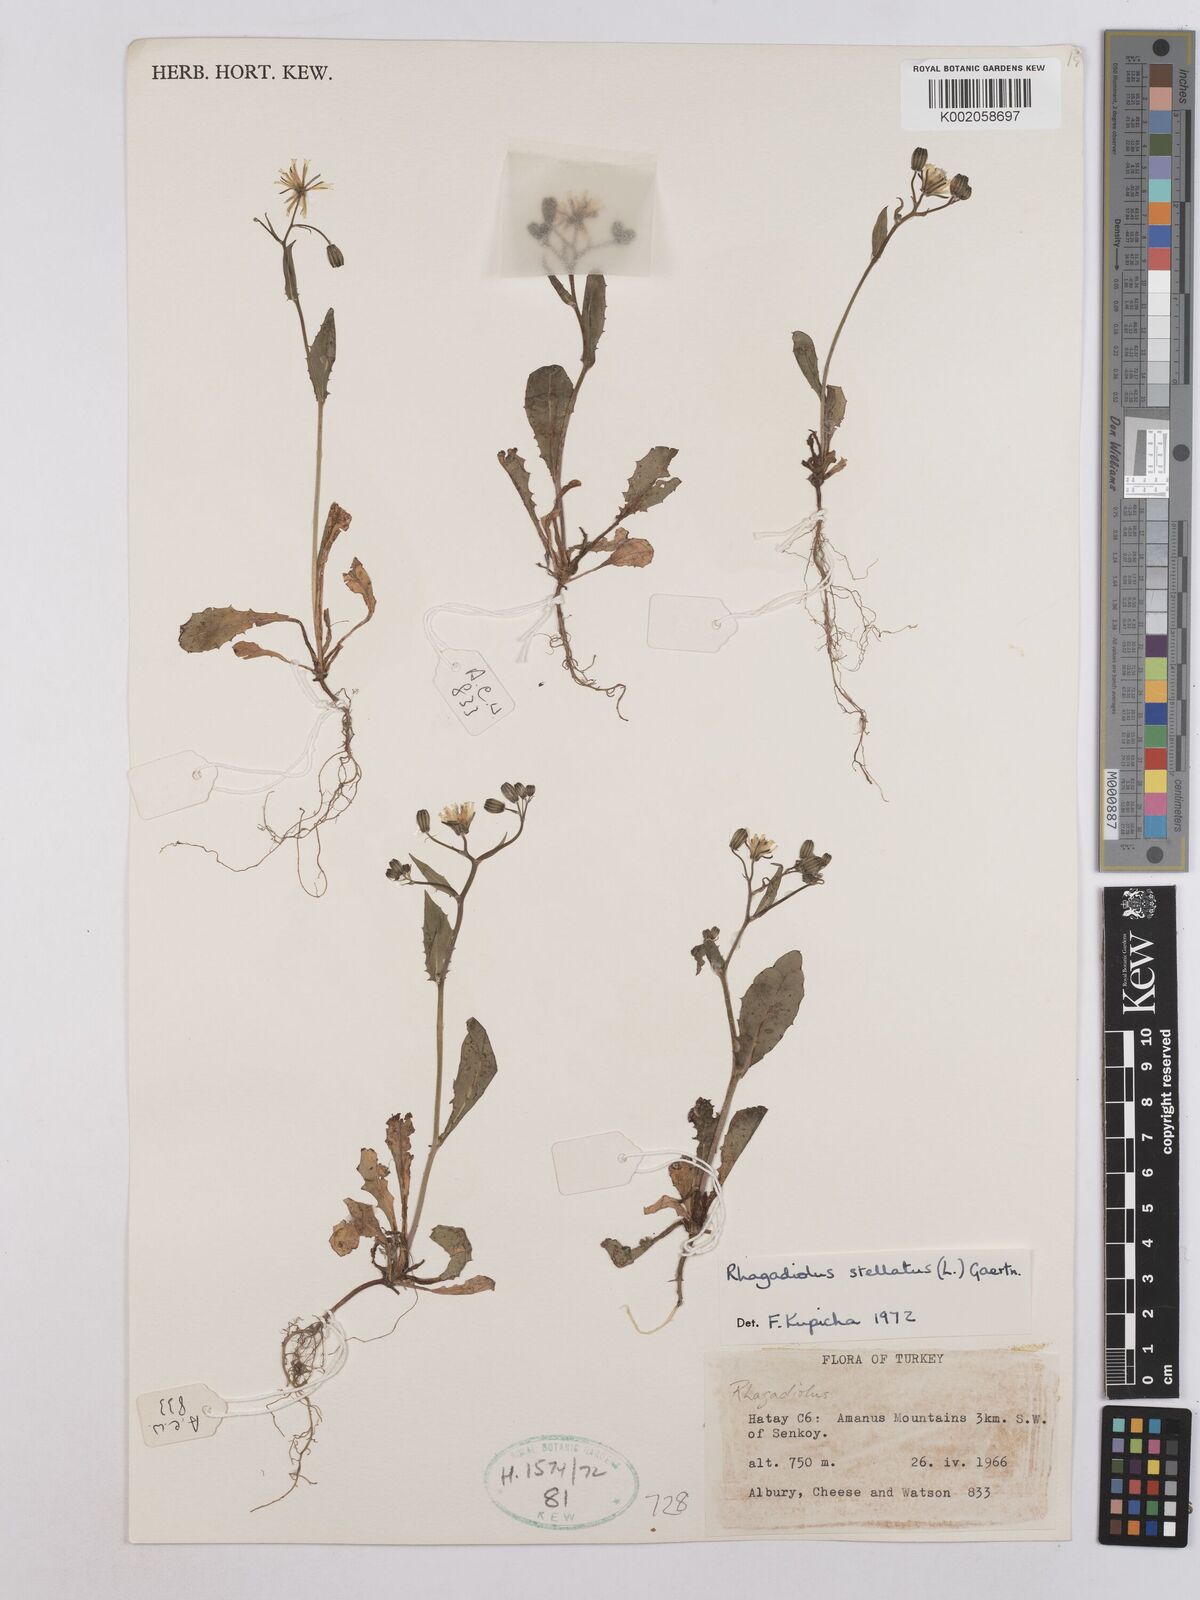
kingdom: Plantae
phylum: Tracheophyta
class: Magnoliopsida
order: Asterales
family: Asteraceae
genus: Rhagadiolus
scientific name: Rhagadiolus stellatus
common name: Star hawkbit
